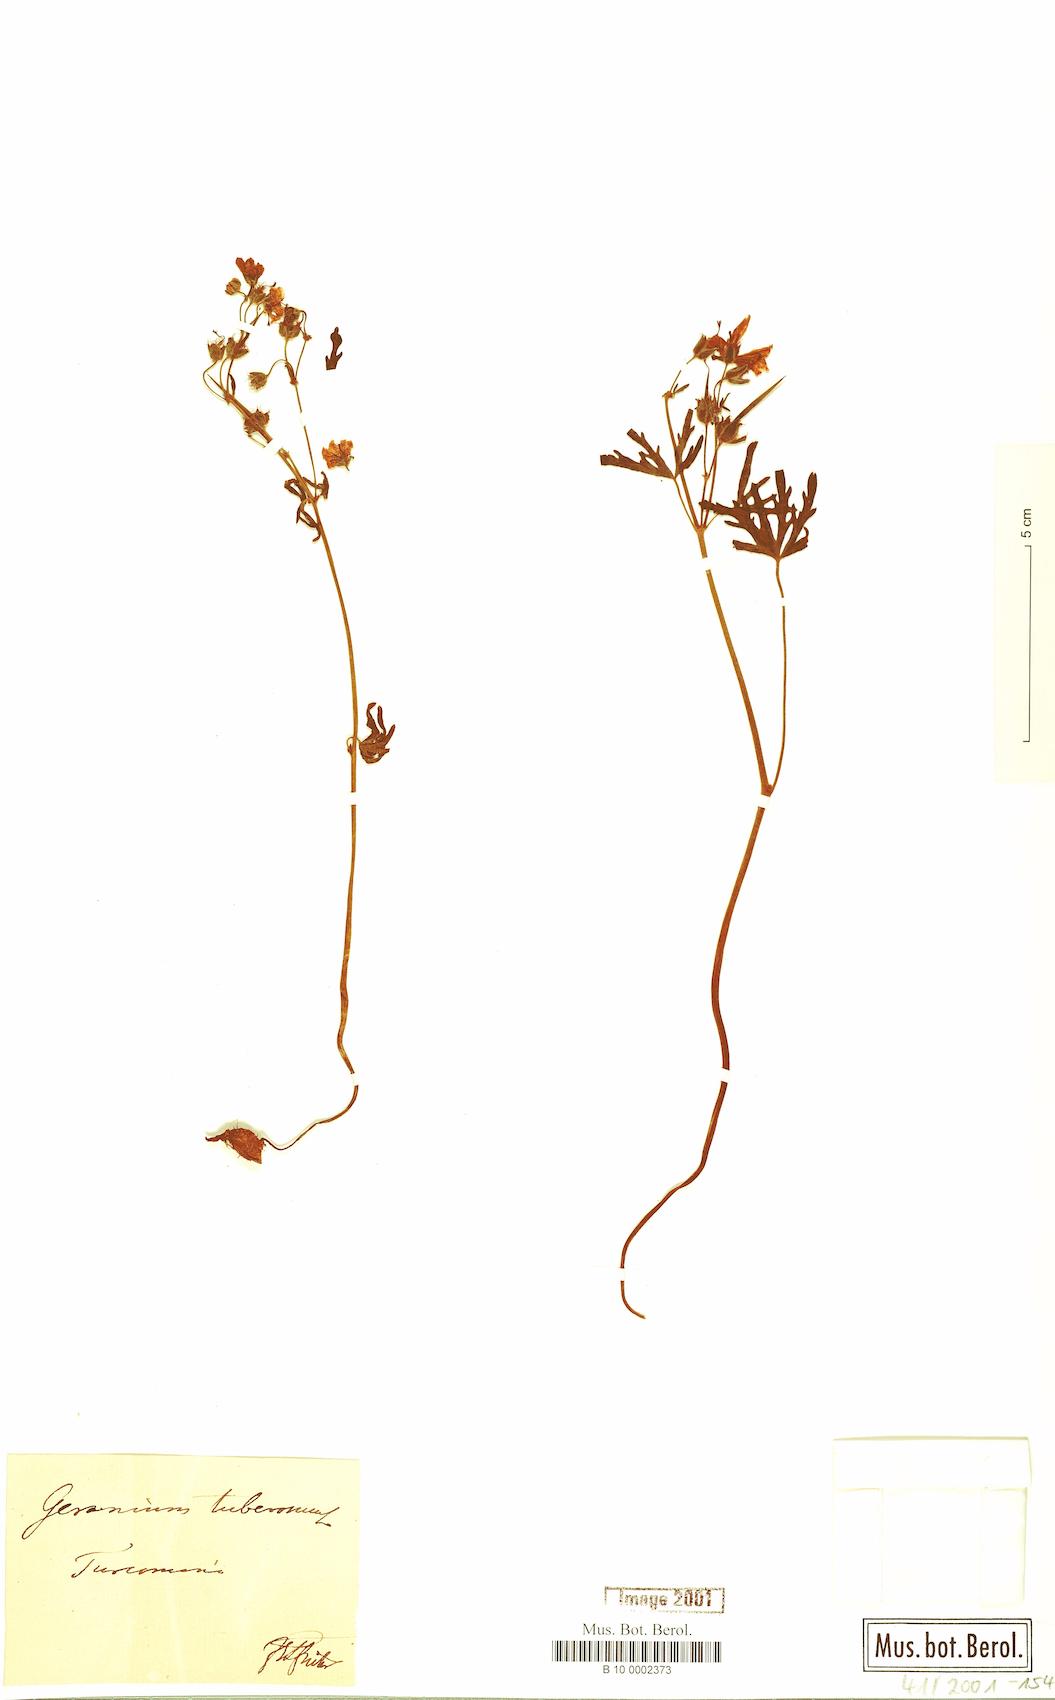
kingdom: Plantae
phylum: Tracheophyta
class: Magnoliopsida
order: Geraniales
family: Geraniaceae
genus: Geranium
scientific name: Geranium tuberosum
